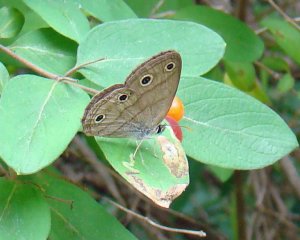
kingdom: Animalia
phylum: Arthropoda
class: Insecta
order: Lepidoptera
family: Nymphalidae
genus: Euptychia
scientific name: Euptychia cymela
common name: Little Wood Satyr
